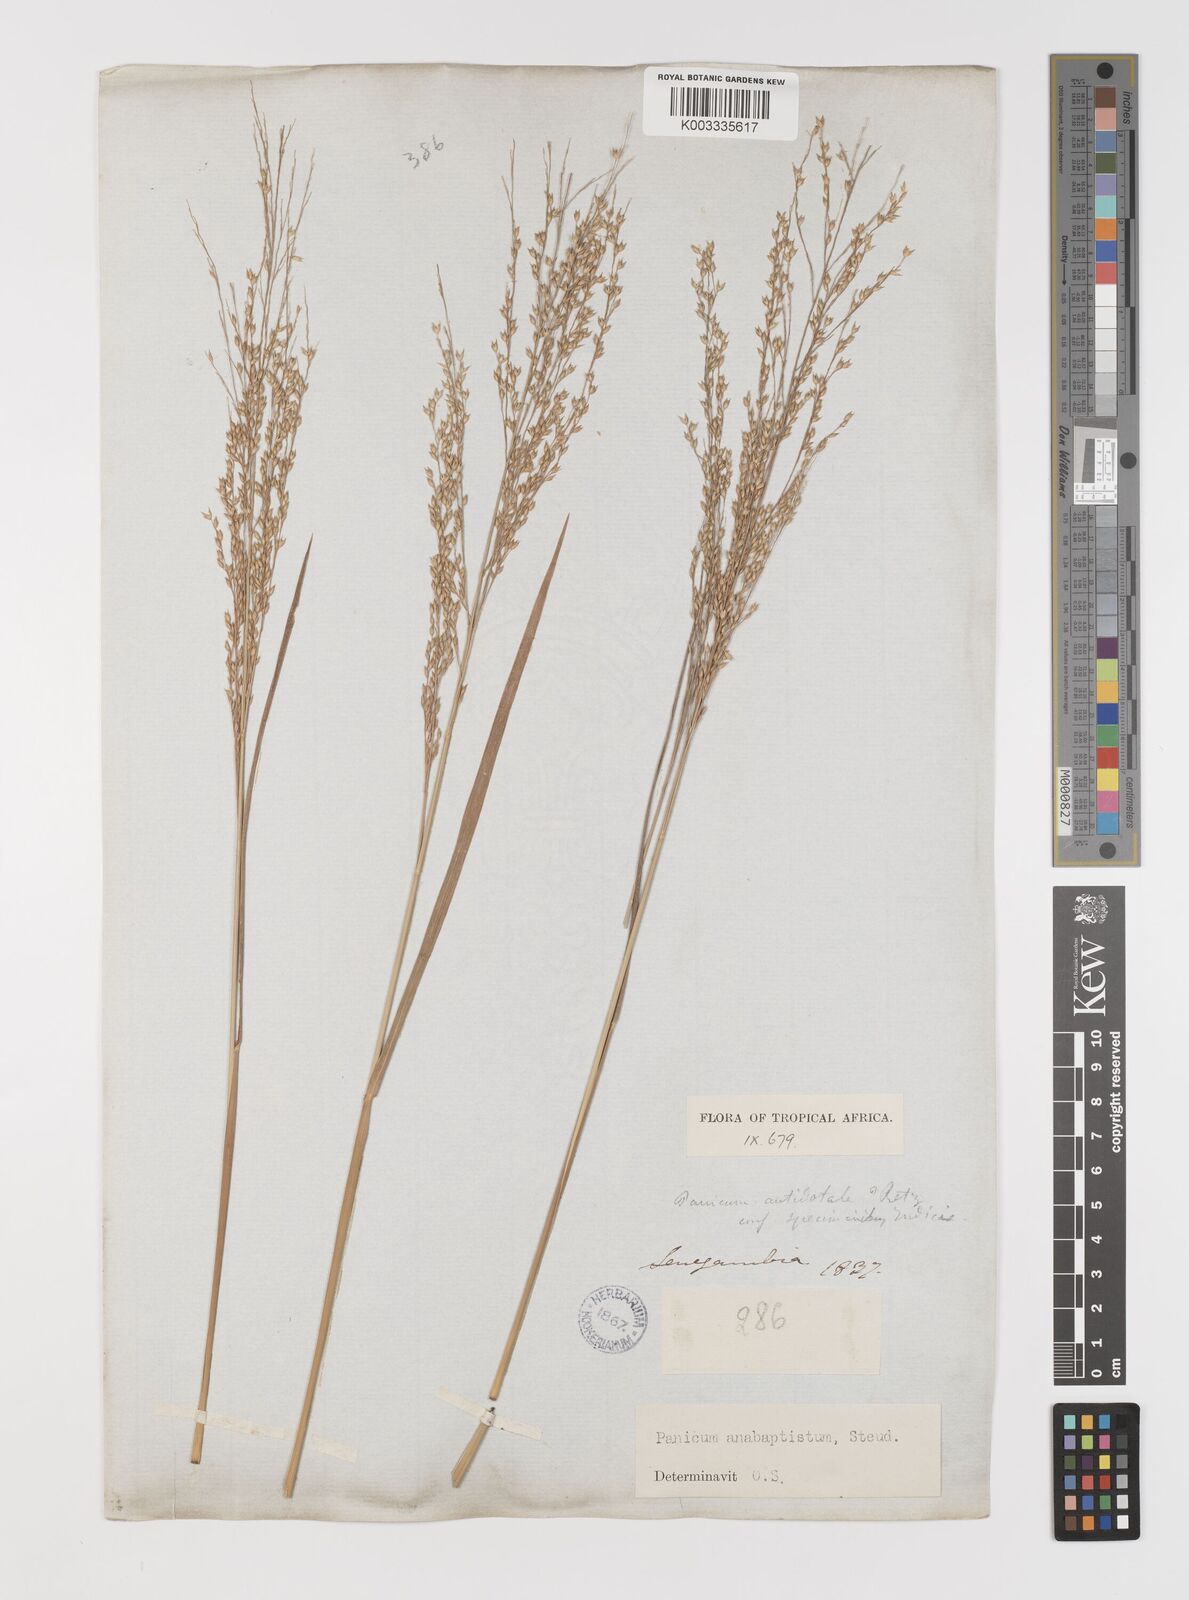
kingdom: Plantae
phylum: Tracheophyta
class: Liliopsida
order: Poales
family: Poaceae
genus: Panicum
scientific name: Panicum anabaptistum
